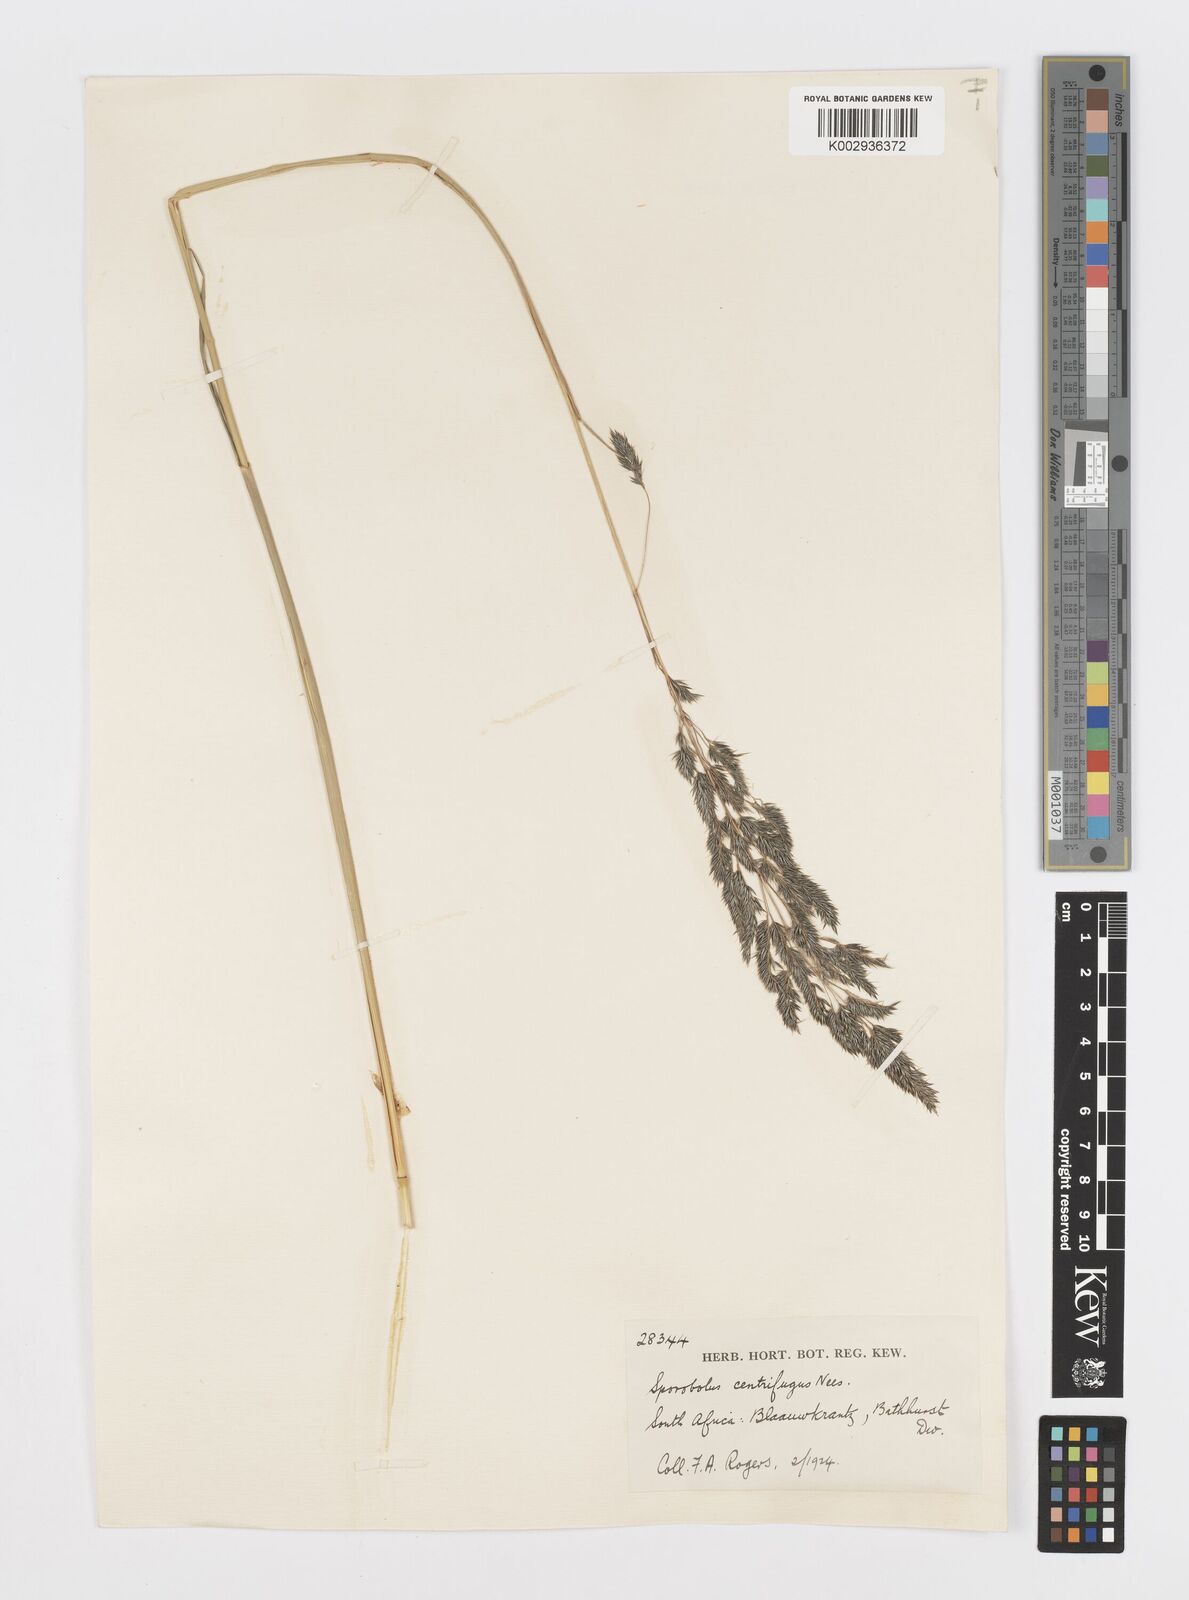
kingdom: Plantae
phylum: Tracheophyta
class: Liliopsida
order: Poales
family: Poaceae
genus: Sporobolus
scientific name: Sporobolus centrifugus
